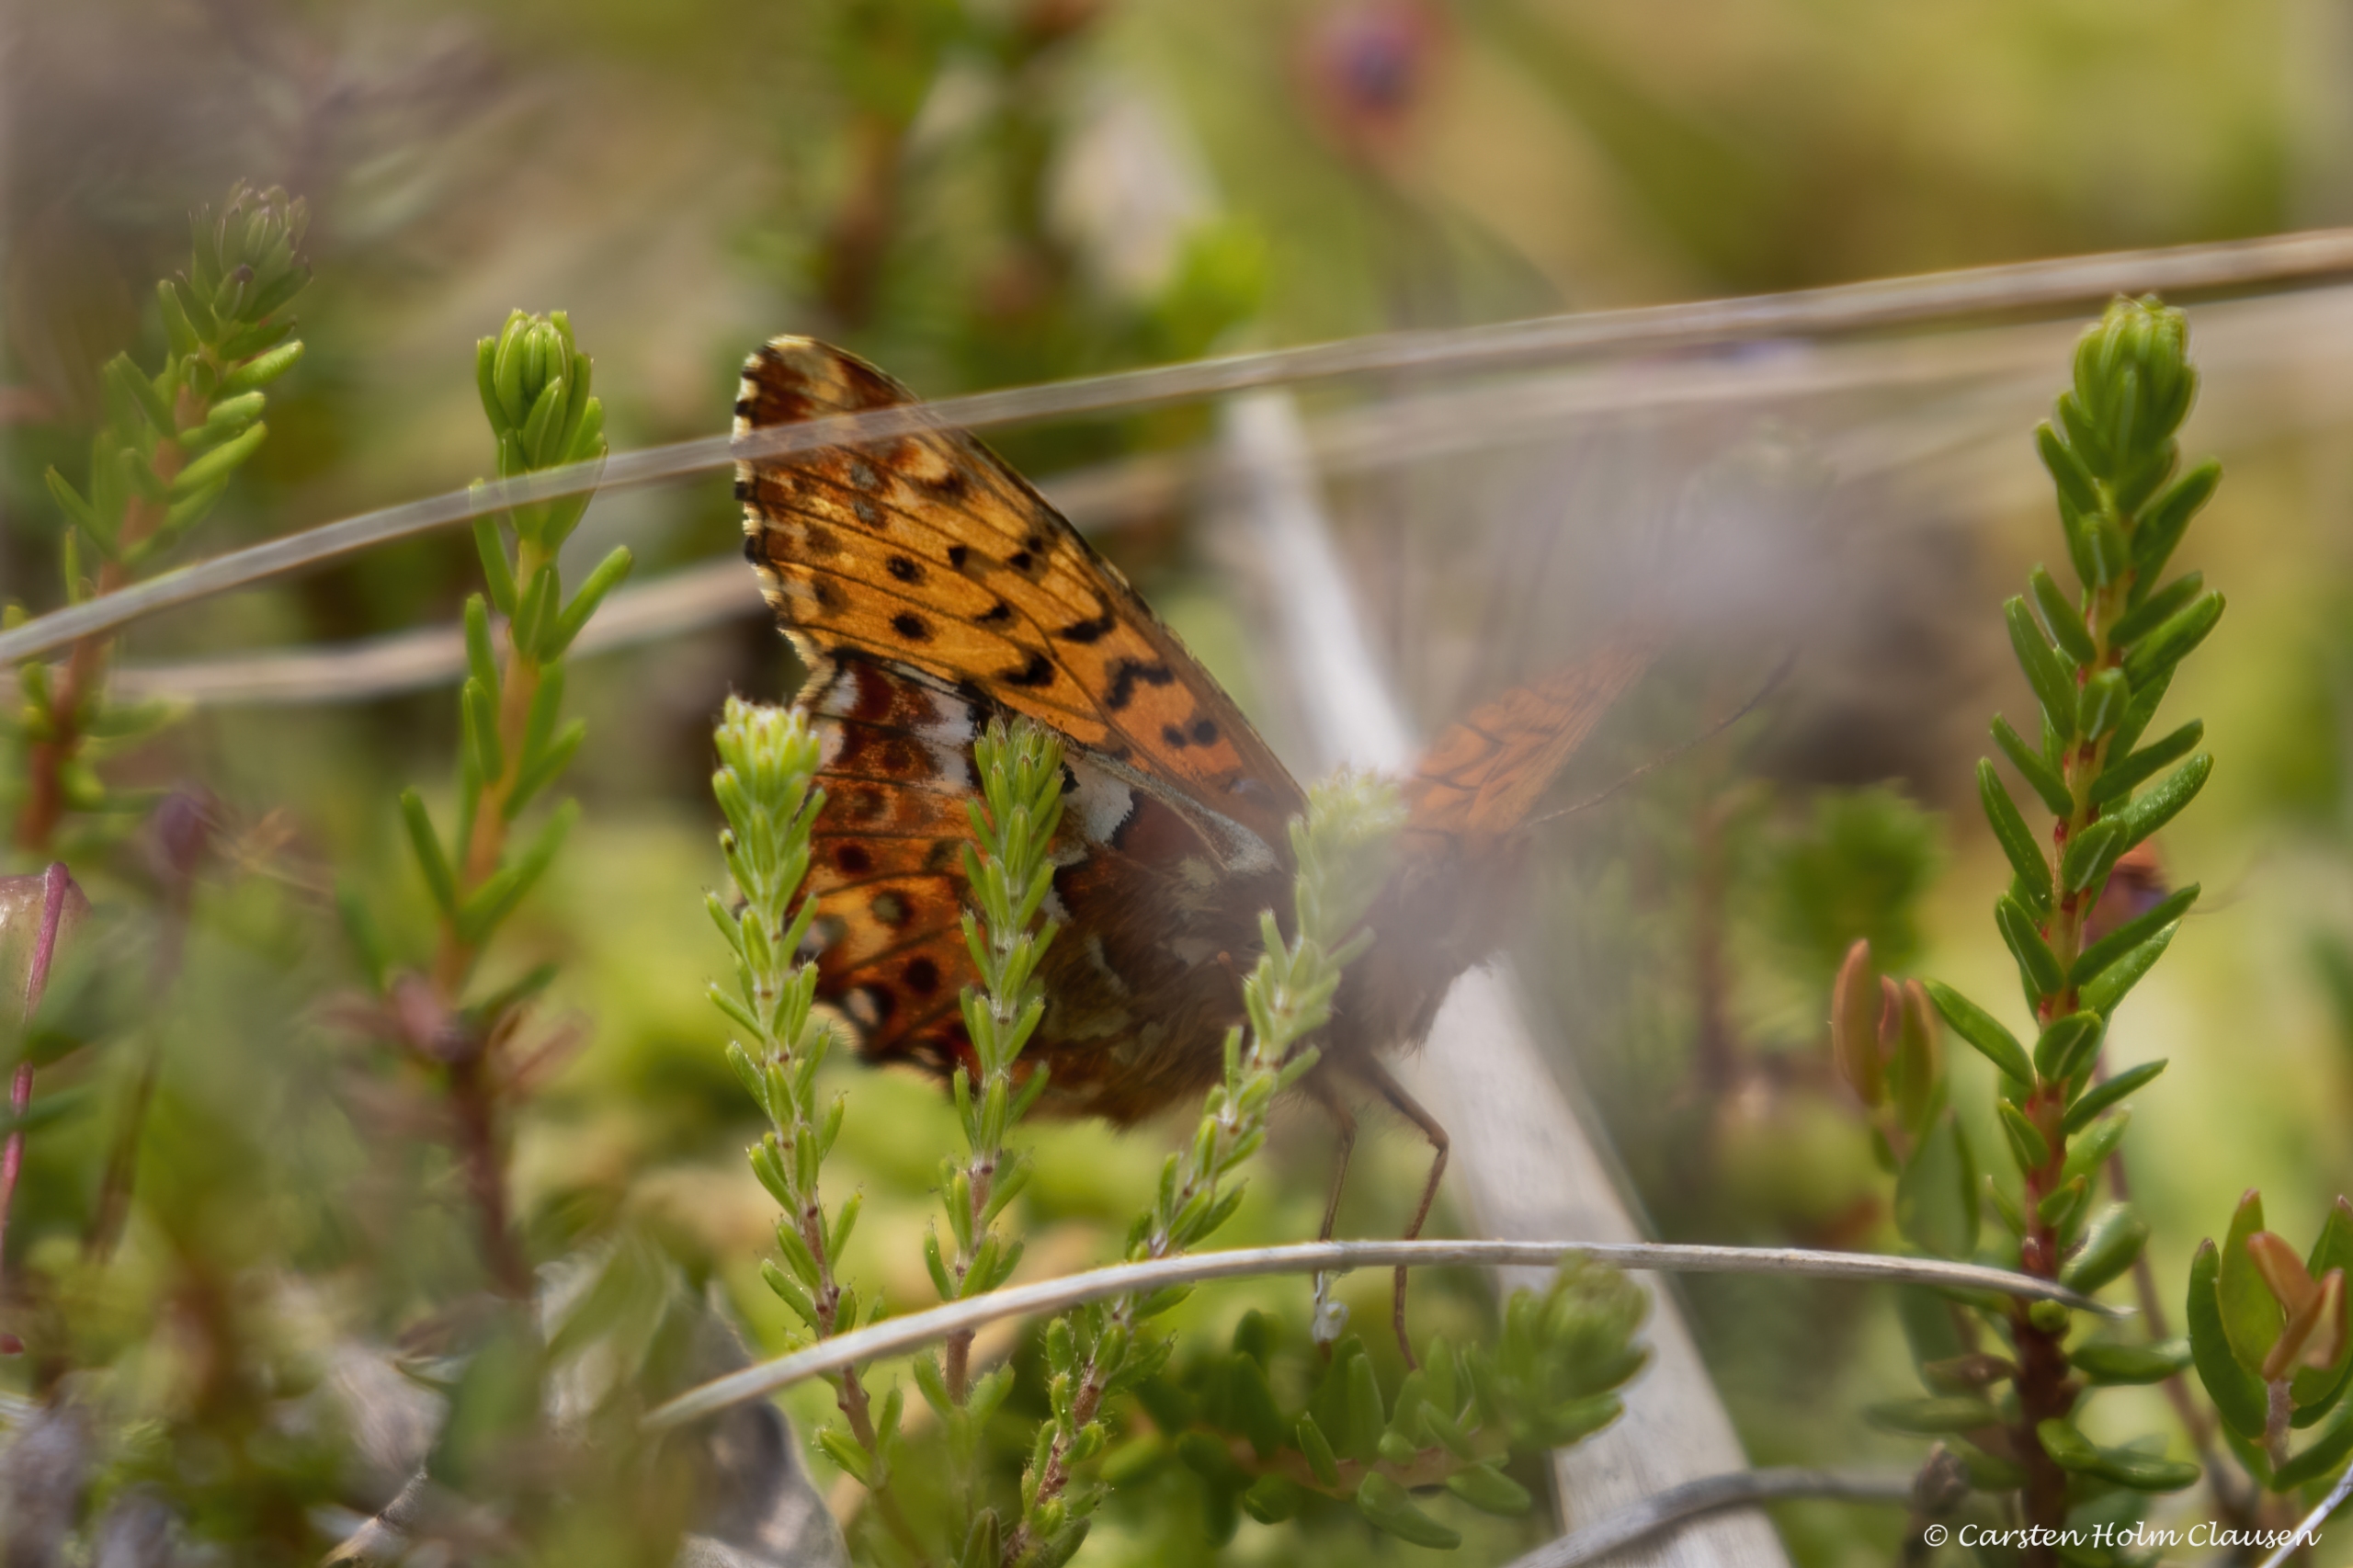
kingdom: Animalia
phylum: Arthropoda
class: Insecta
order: Lepidoptera
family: Nymphalidae
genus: Boloria
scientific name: Boloria aquilonaris
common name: Moseperlemorsommerfugl
